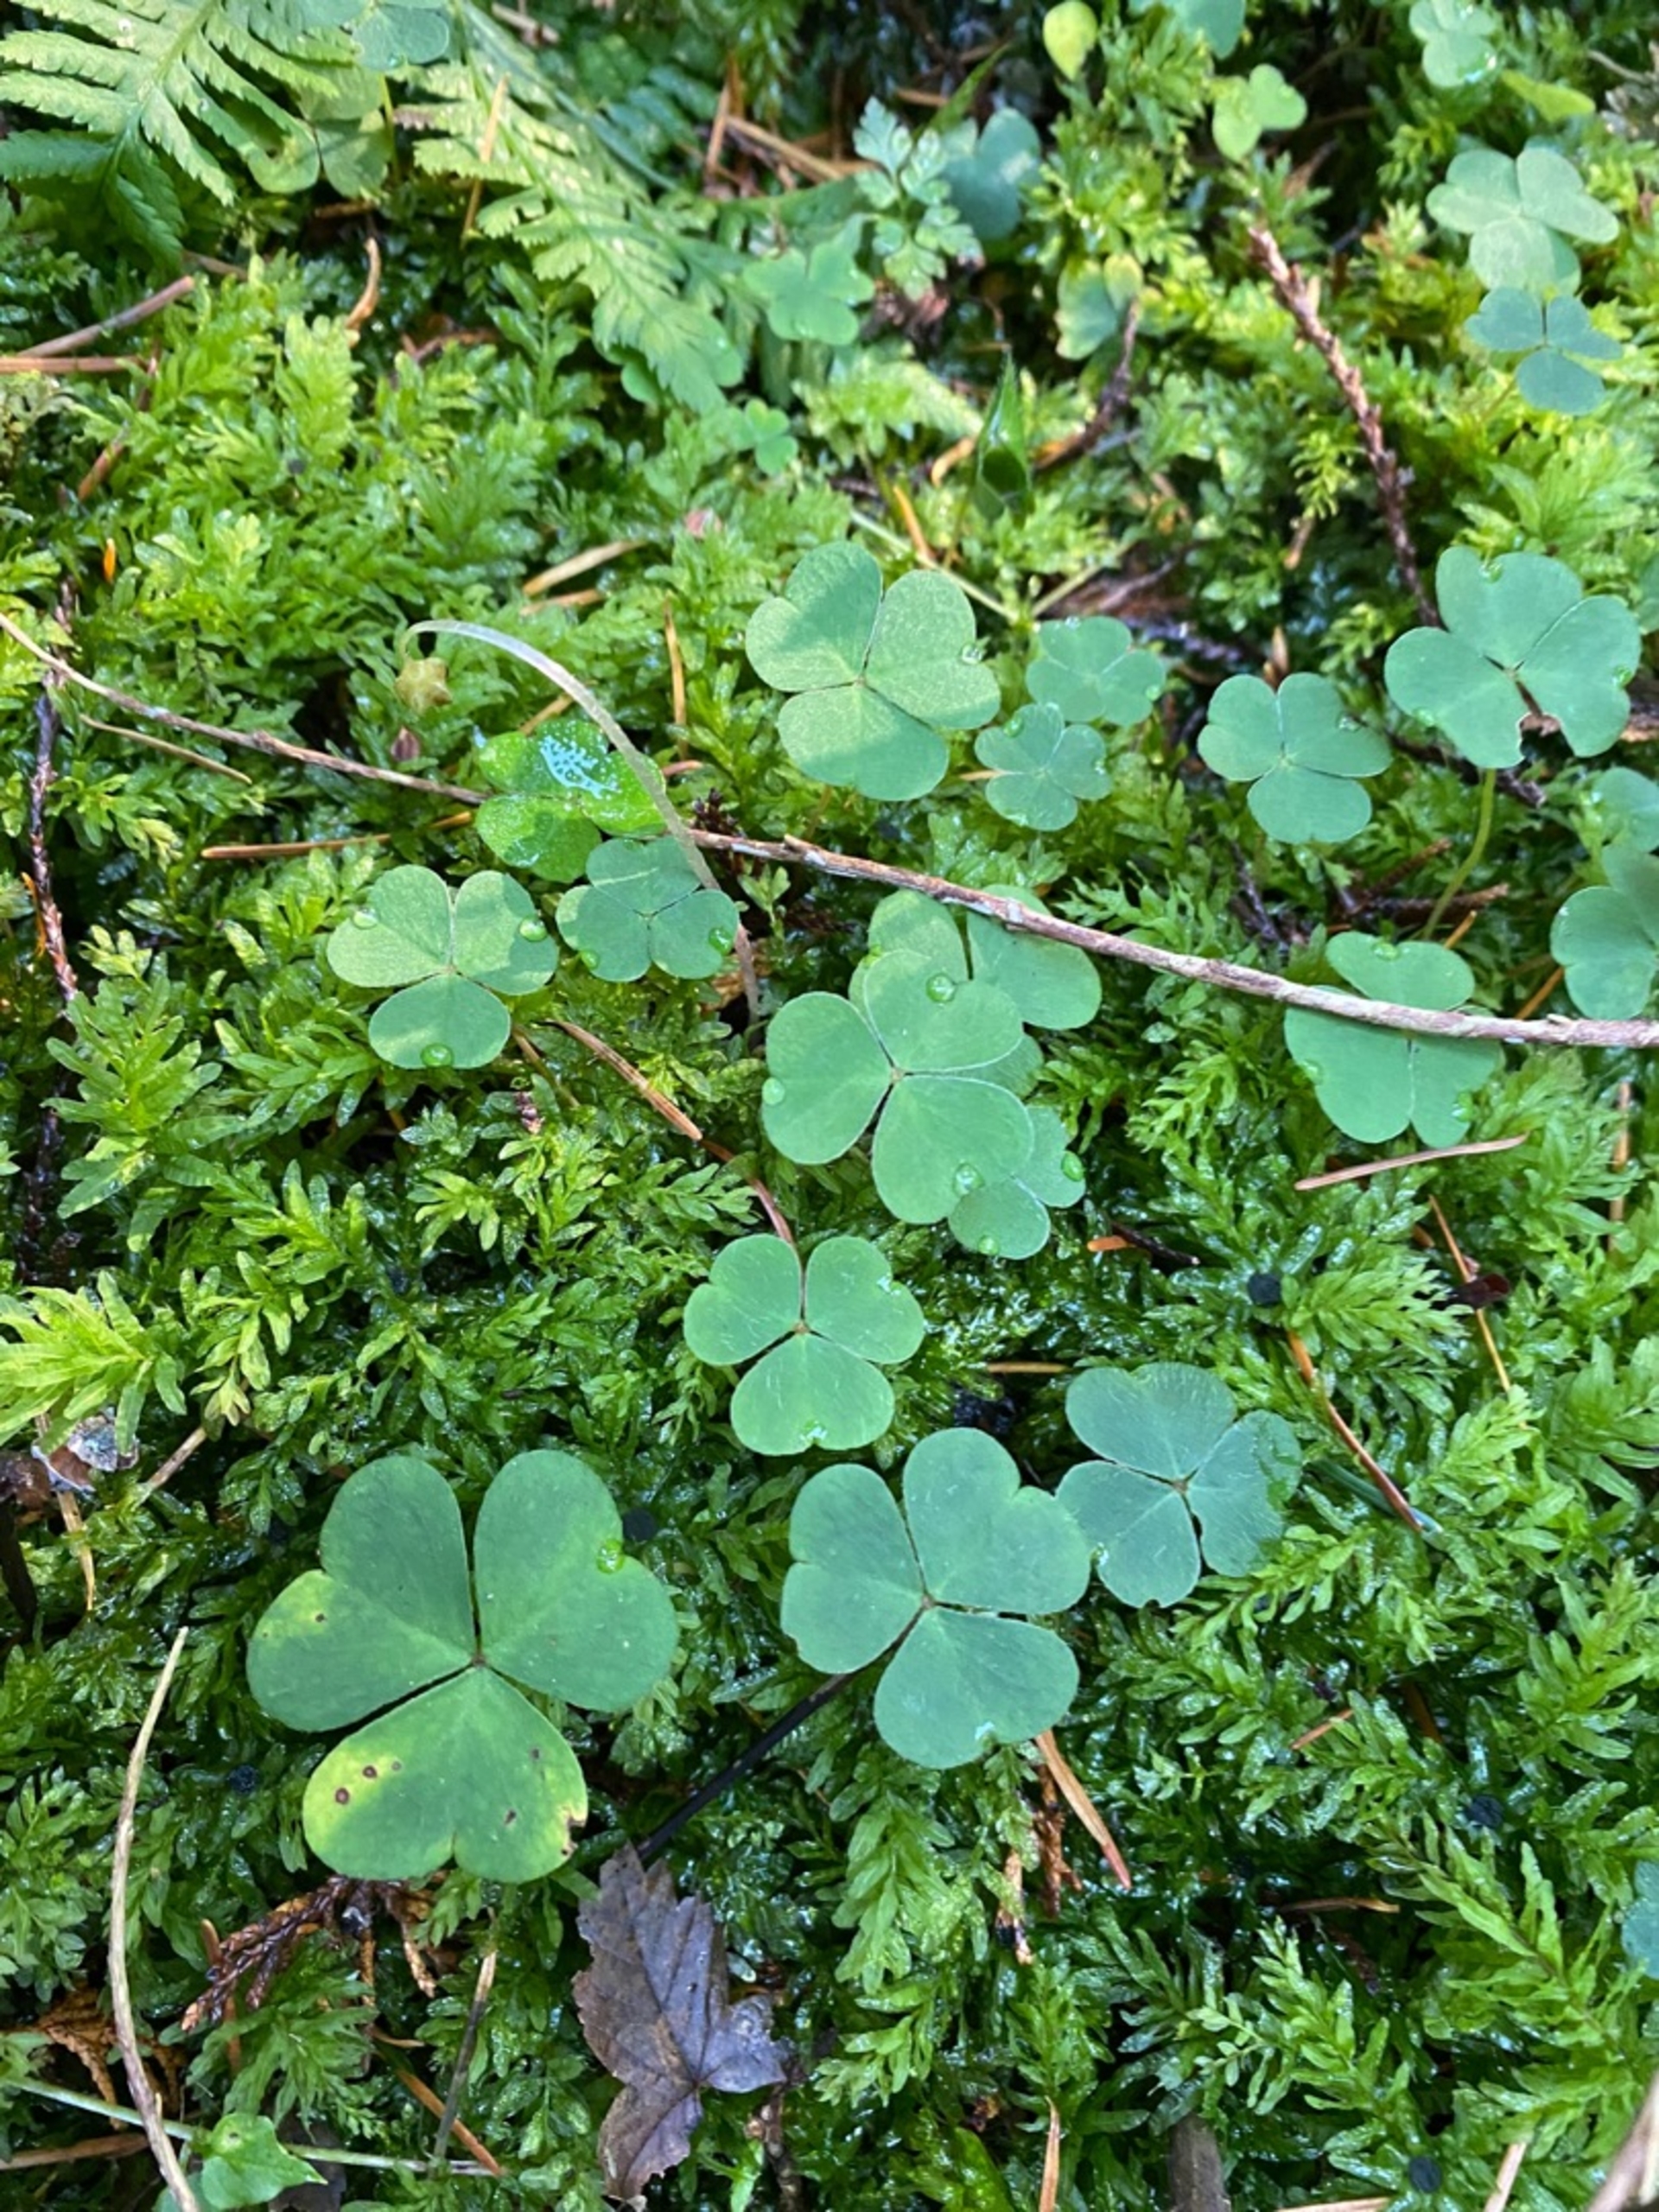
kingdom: Plantae
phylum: Tracheophyta
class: Magnoliopsida
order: Oxalidales
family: Oxalidaceae
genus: Oxalis
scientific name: Oxalis acetosella
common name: Skovsyre
